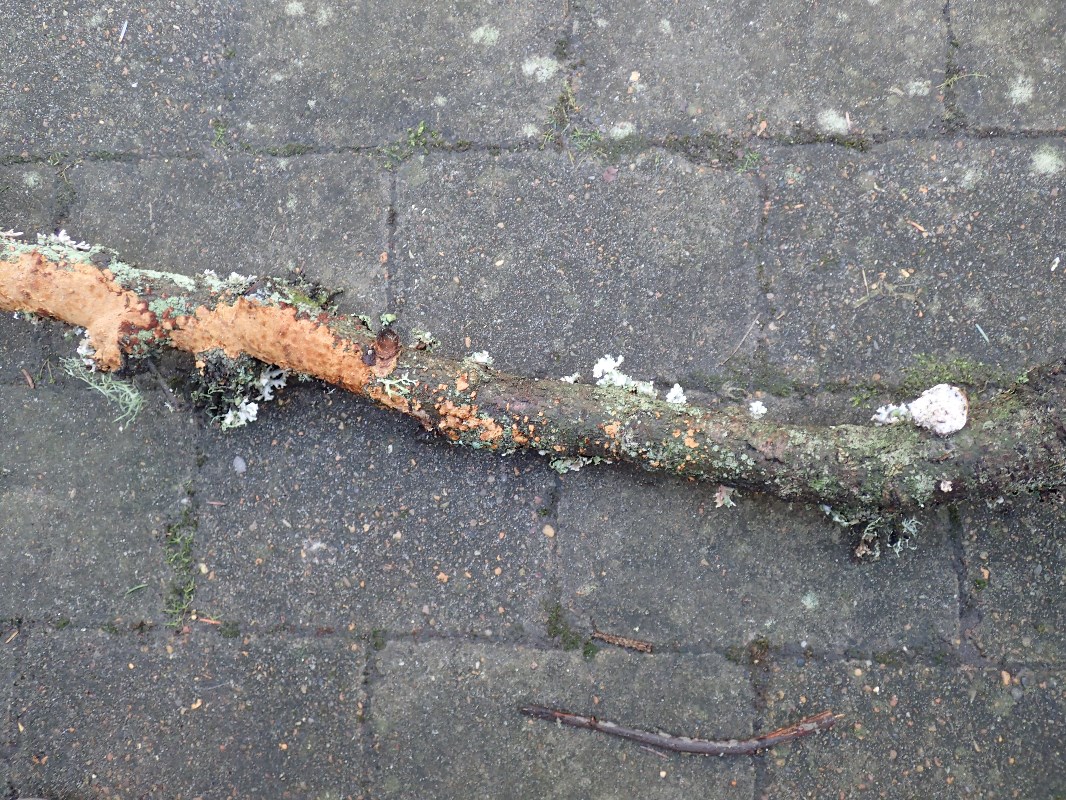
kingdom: Fungi
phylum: Basidiomycota
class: Agaricomycetes
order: Hymenochaetales
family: Hymenochaetaceae
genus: Fuscoporia
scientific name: Fuscoporia ferrea
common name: skorpe-ildporesvamp
